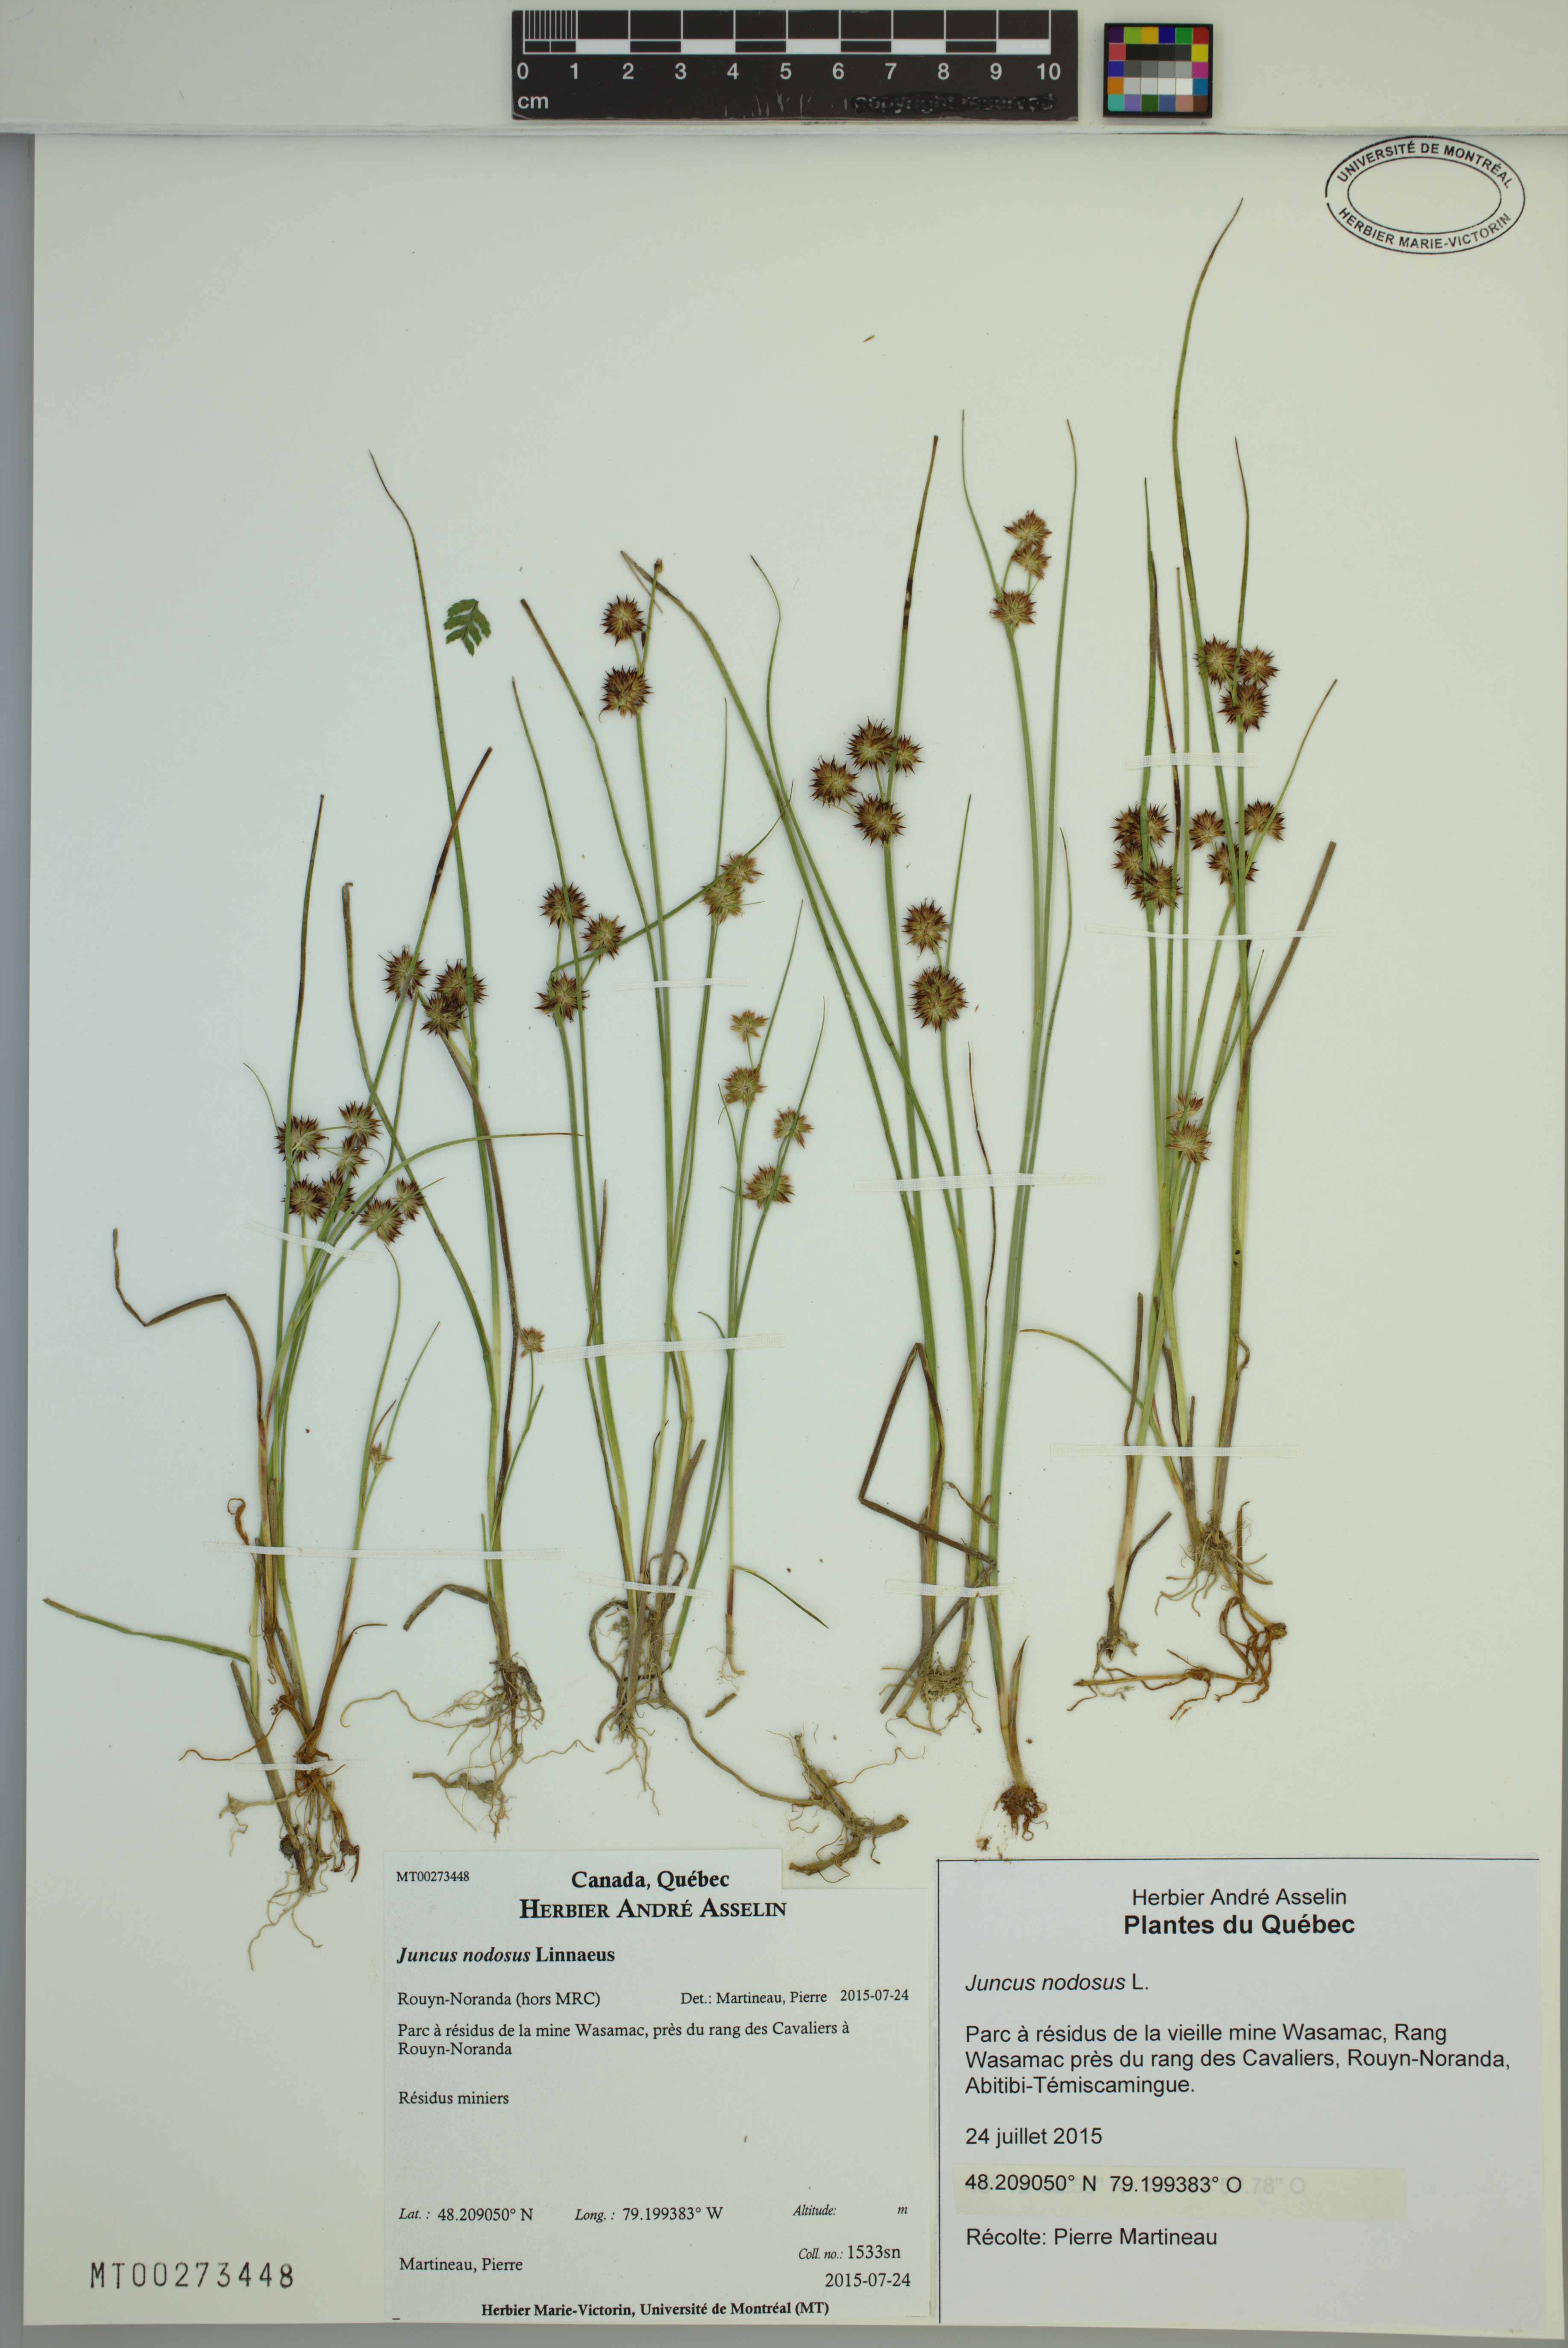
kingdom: Plantae
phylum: Tracheophyta
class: Liliopsida
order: Poales
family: Juncaceae
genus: Juncus
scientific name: Juncus nodosus
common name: Knotted rush
